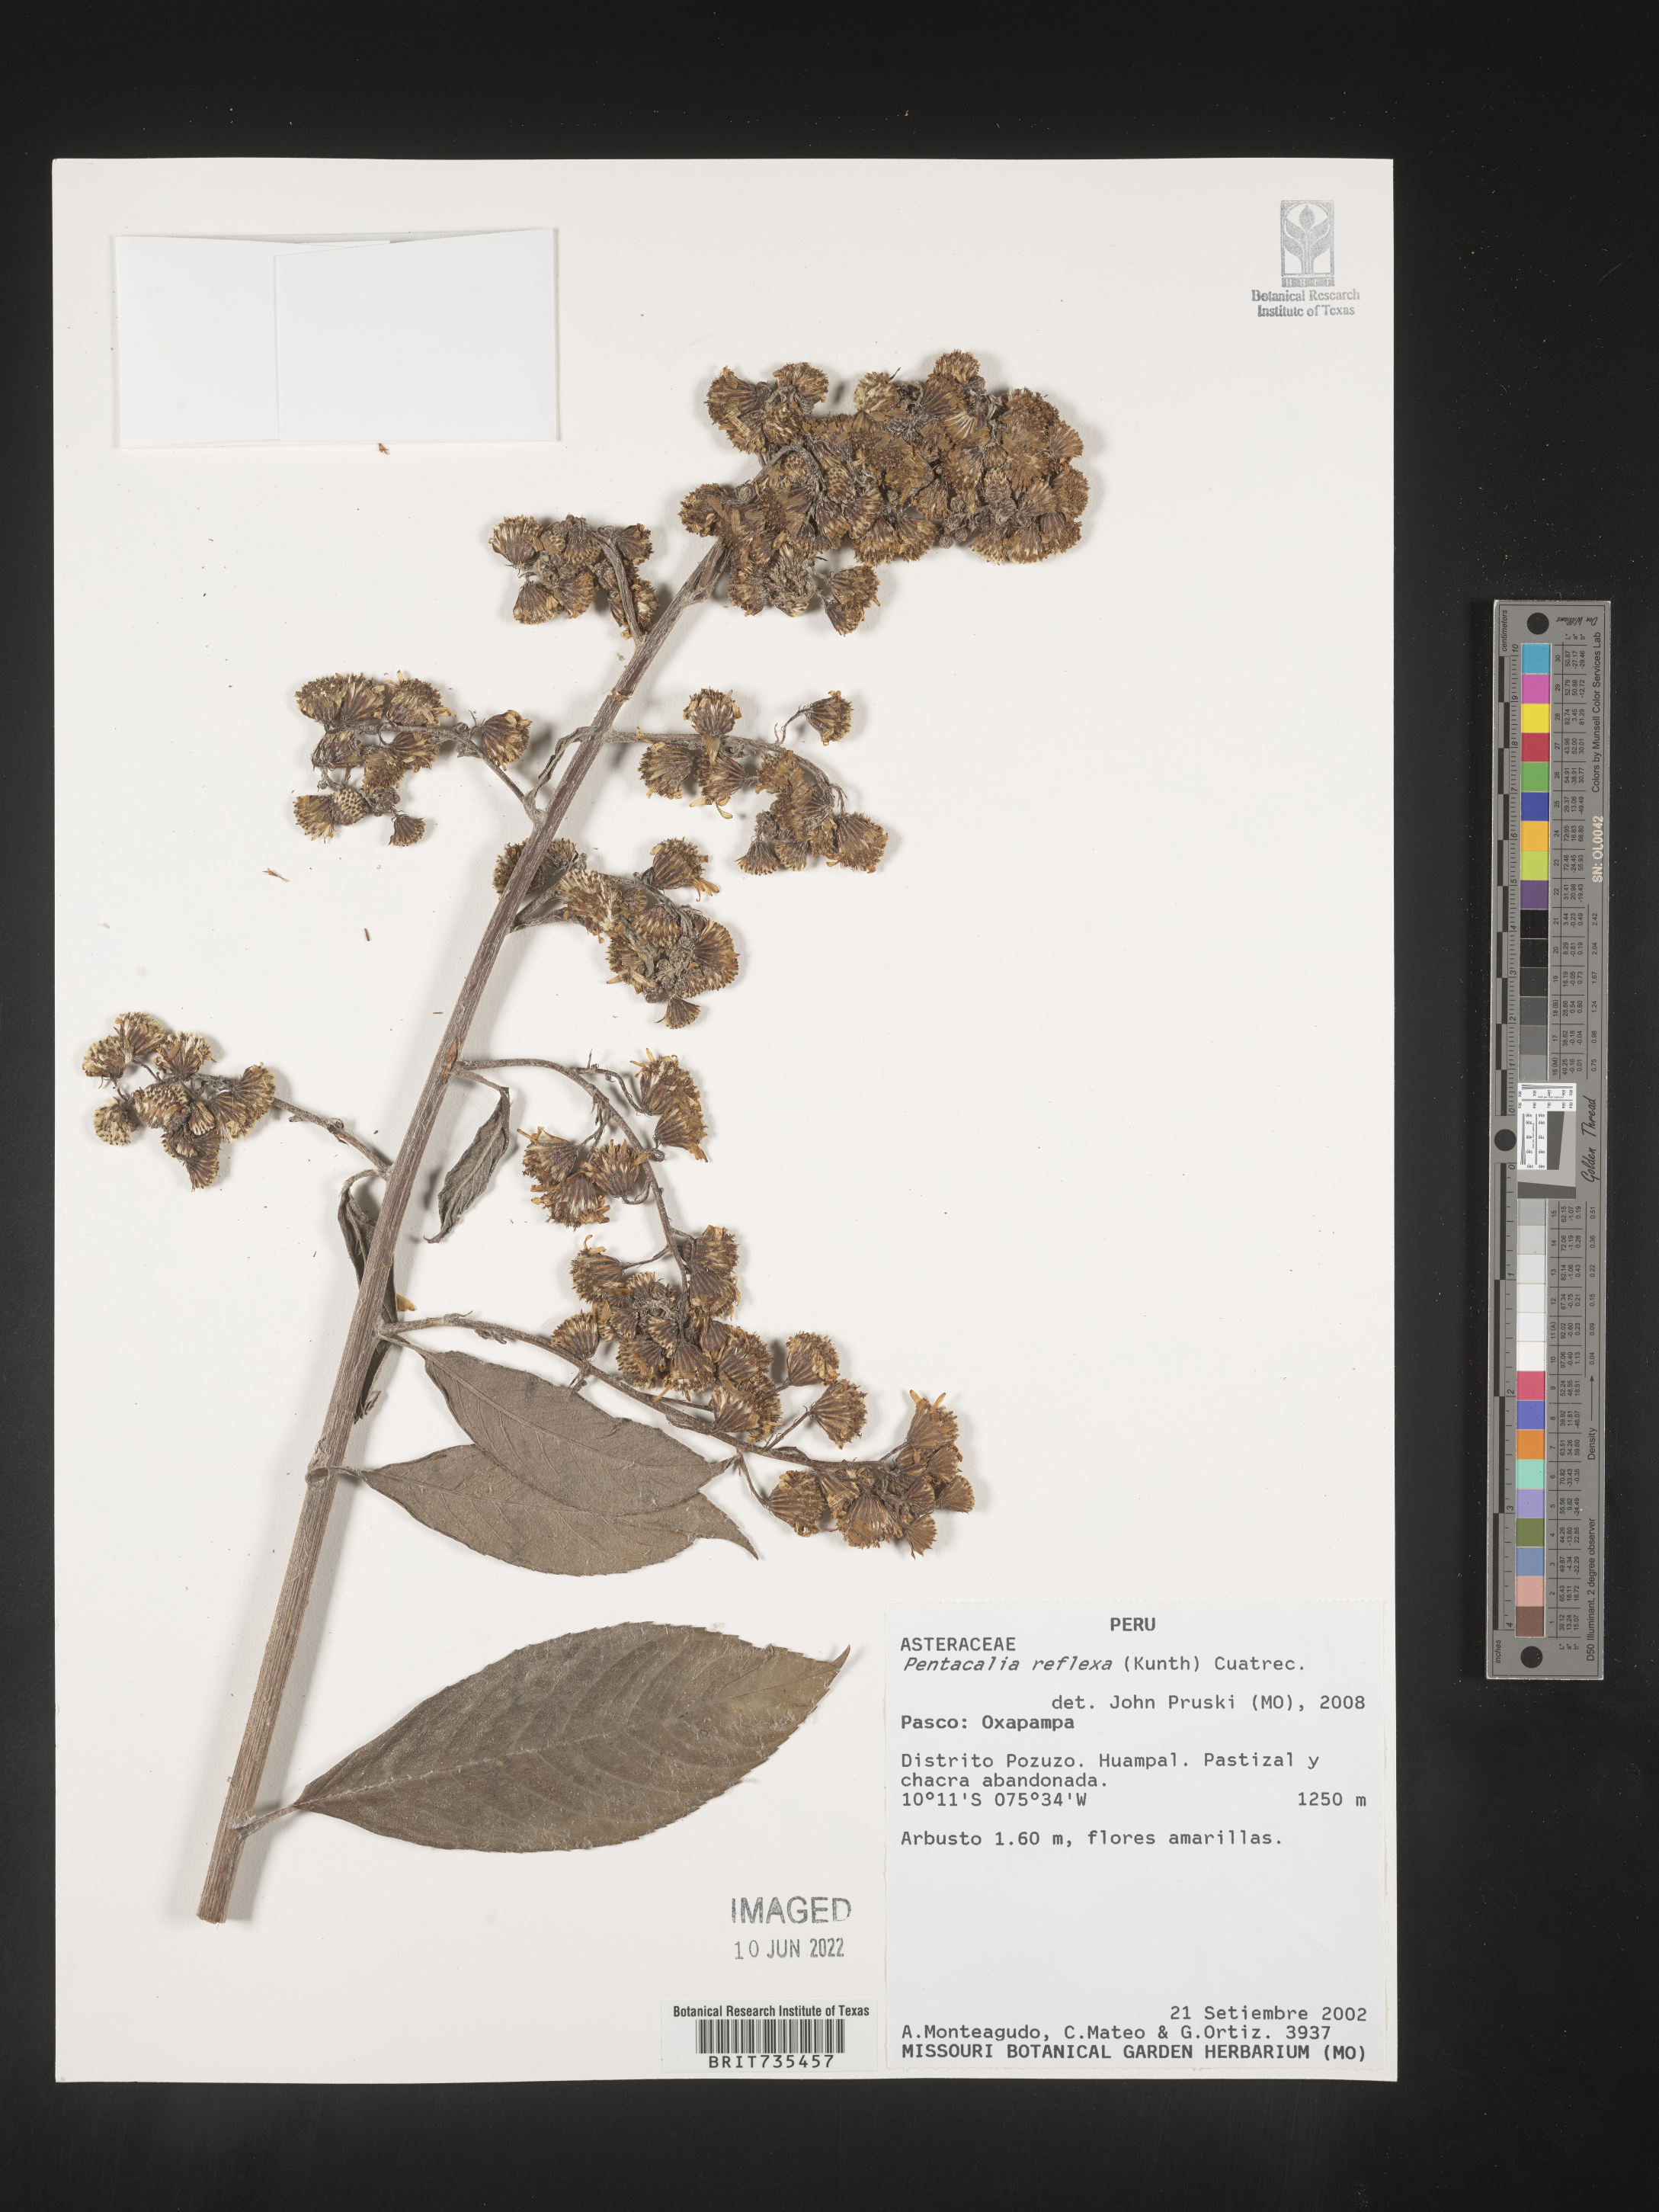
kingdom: Plantae
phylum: Tracheophyta
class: Magnoliopsida
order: Asterales
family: Asteraceae
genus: Pentacalia
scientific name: Pentacalia
